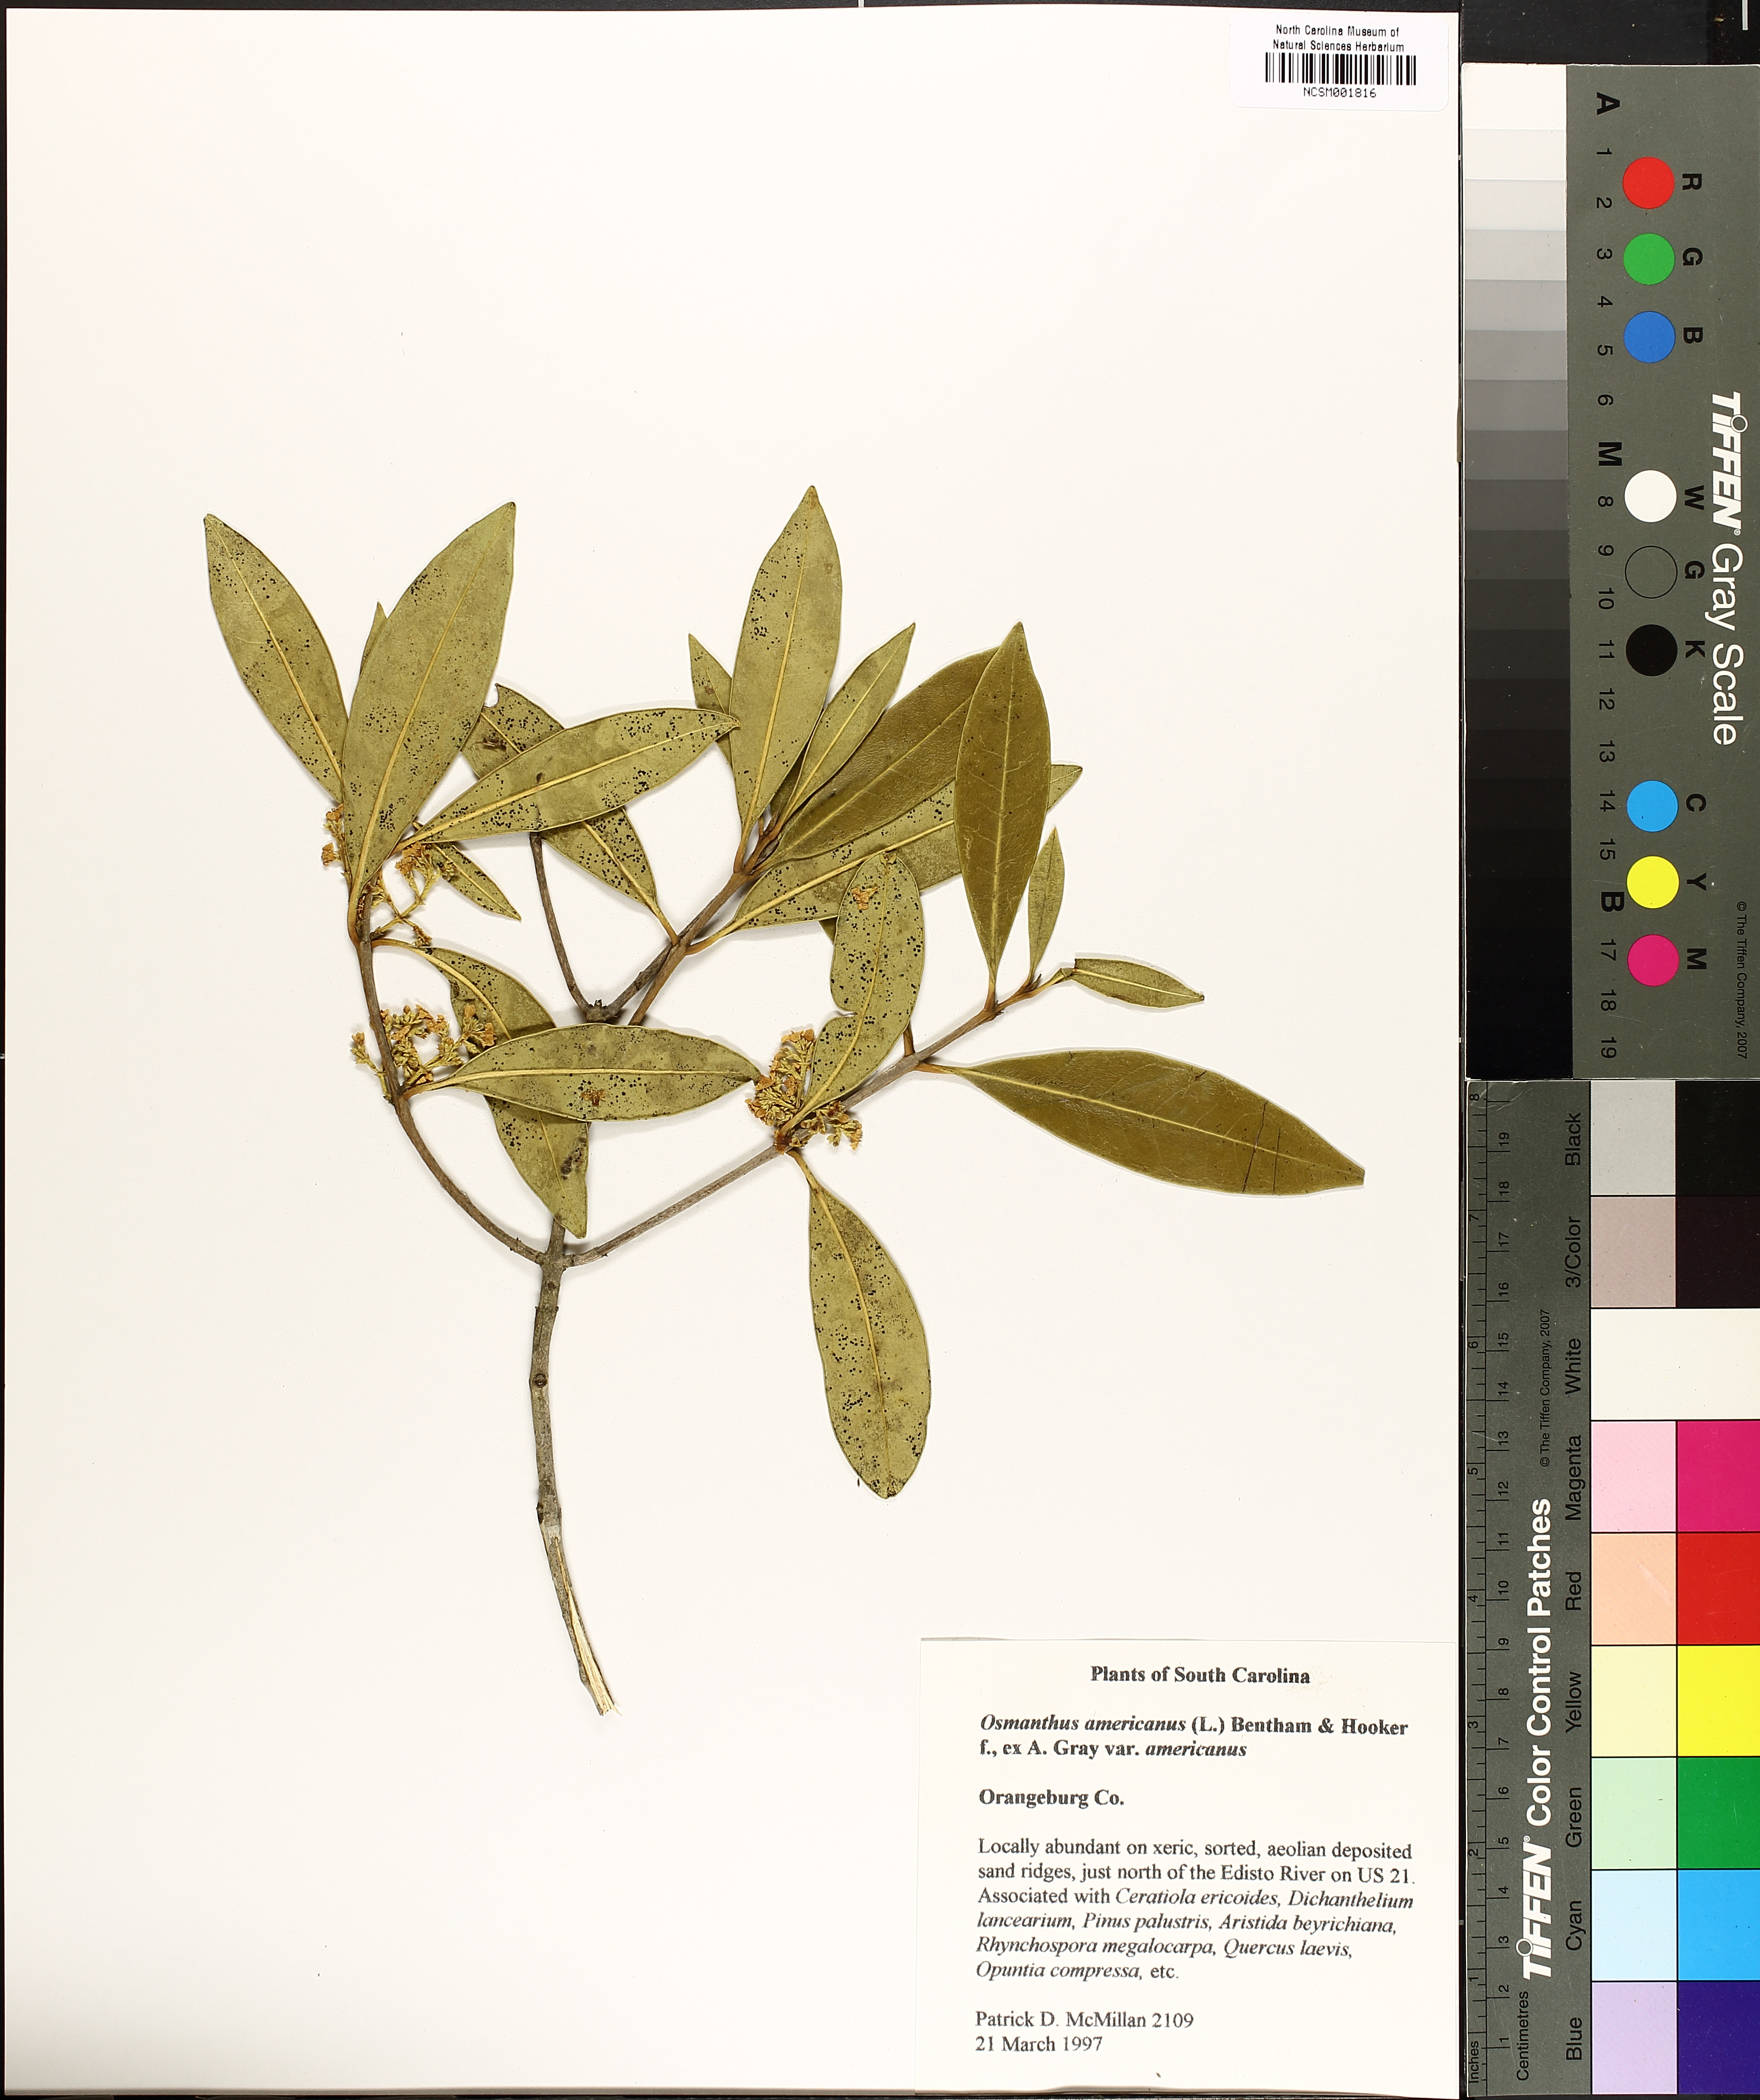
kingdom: Plantae
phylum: Tracheophyta
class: Magnoliopsida
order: Lamiales
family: Oleaceae
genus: Osmanthus
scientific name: Osmanthus americanus
